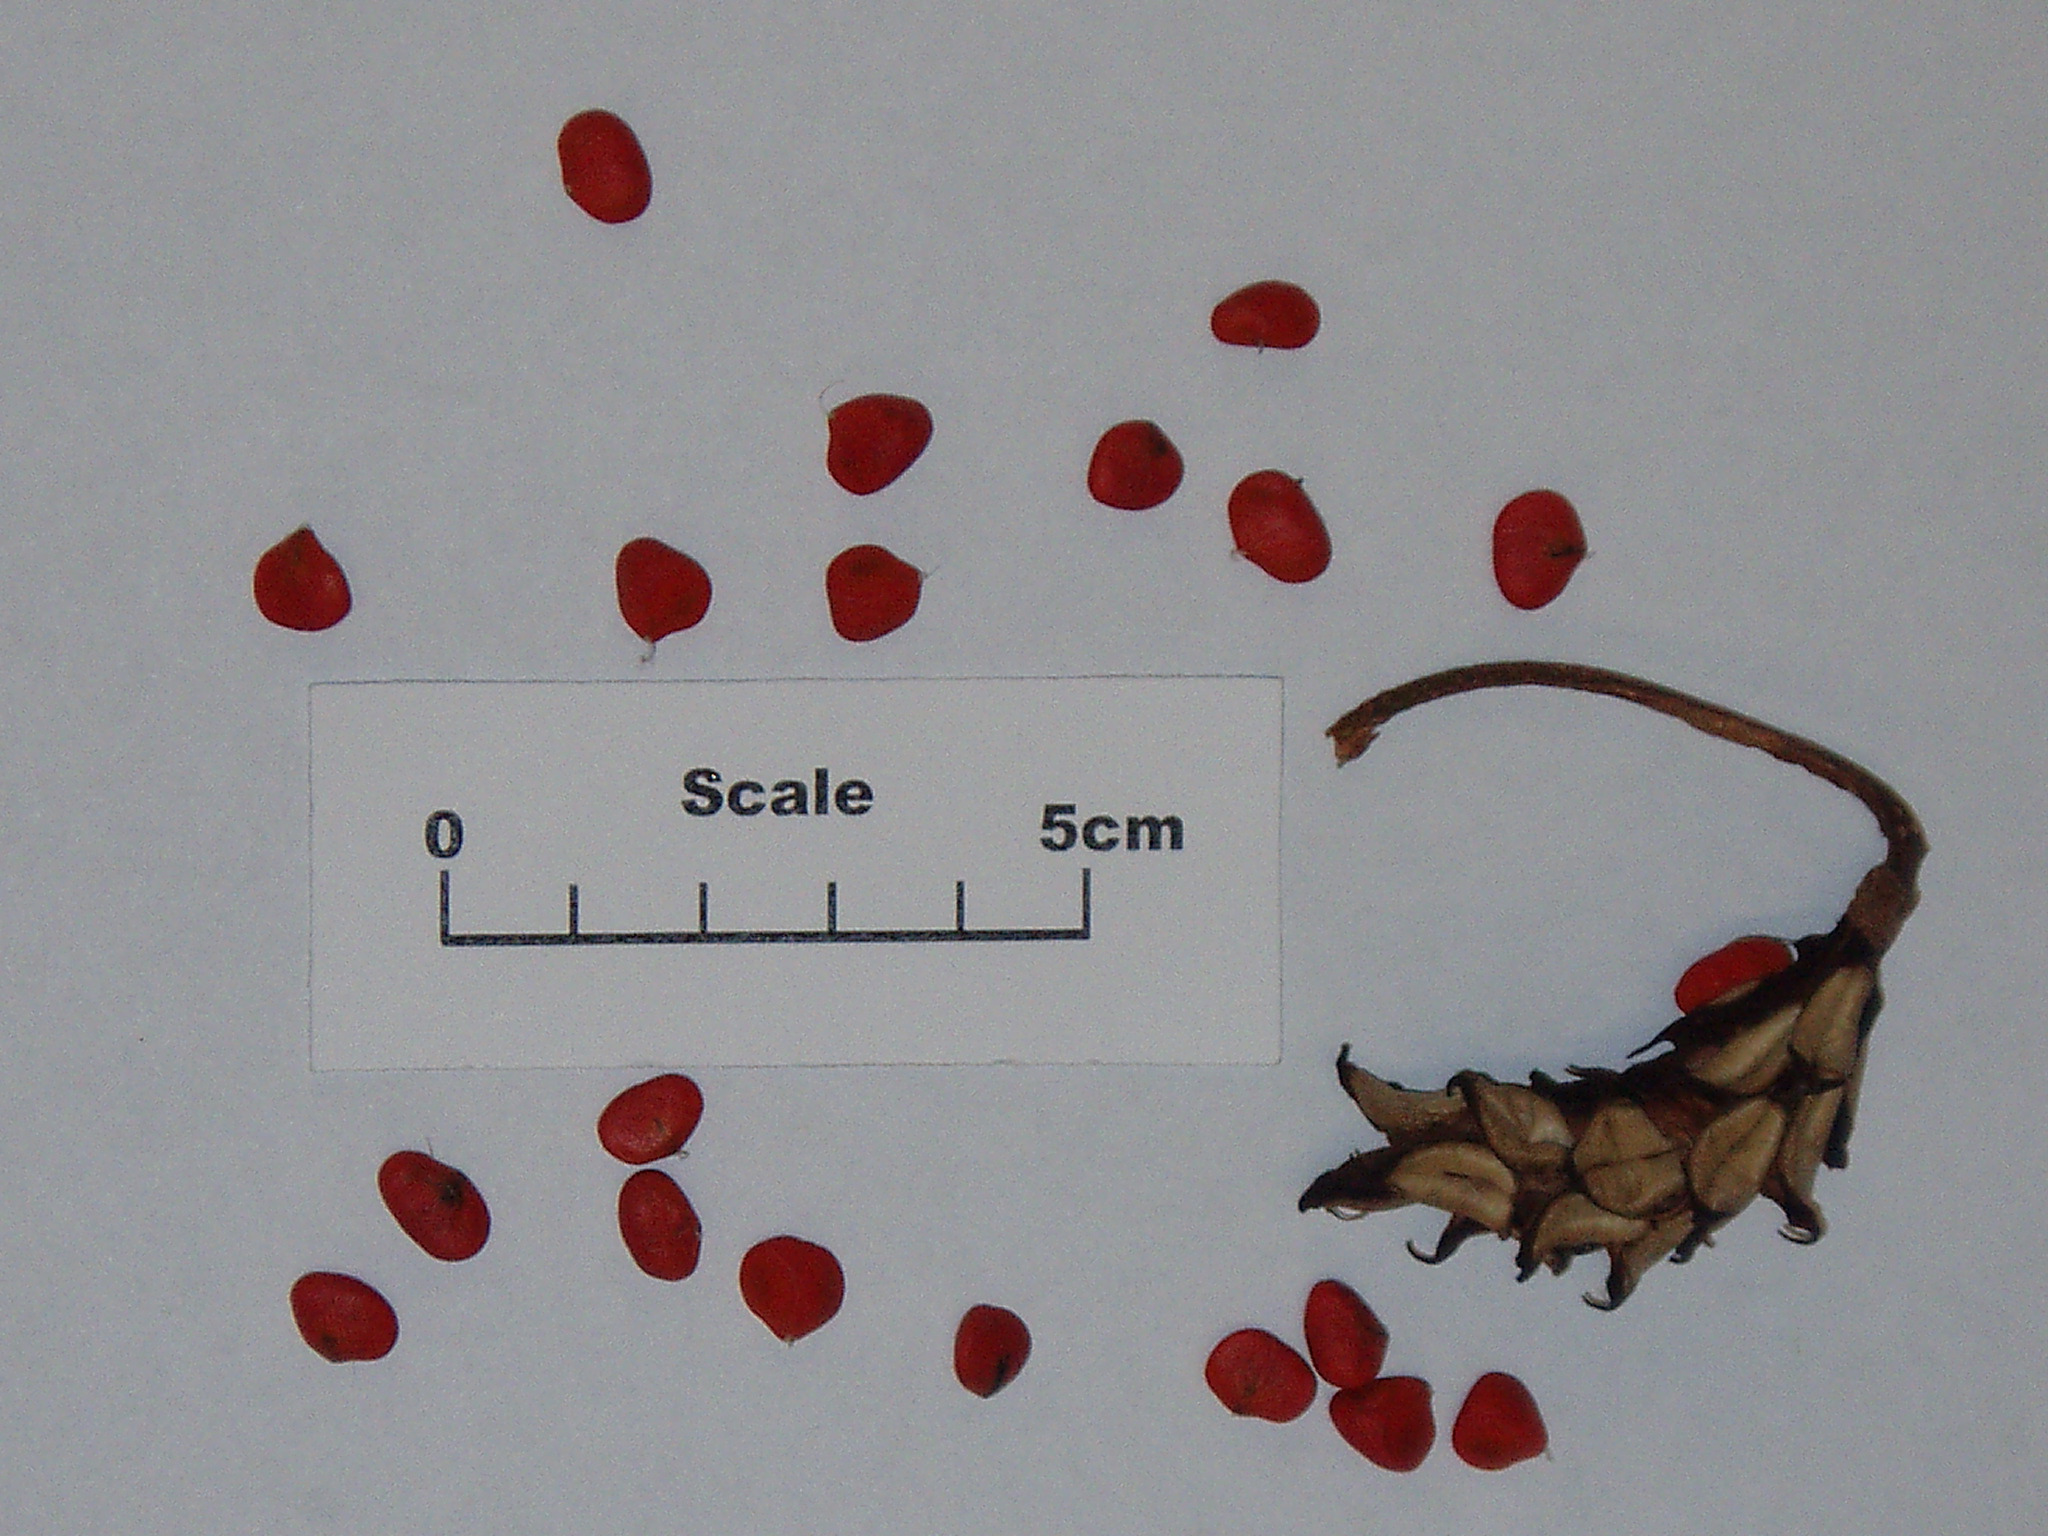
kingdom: Plantae
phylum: Tracheophyta
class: Magnoliopsida
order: Magnoliales
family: Magnoliaceae
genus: Magnolia
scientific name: Magnolia sieboldii
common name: Oyama magnolia
